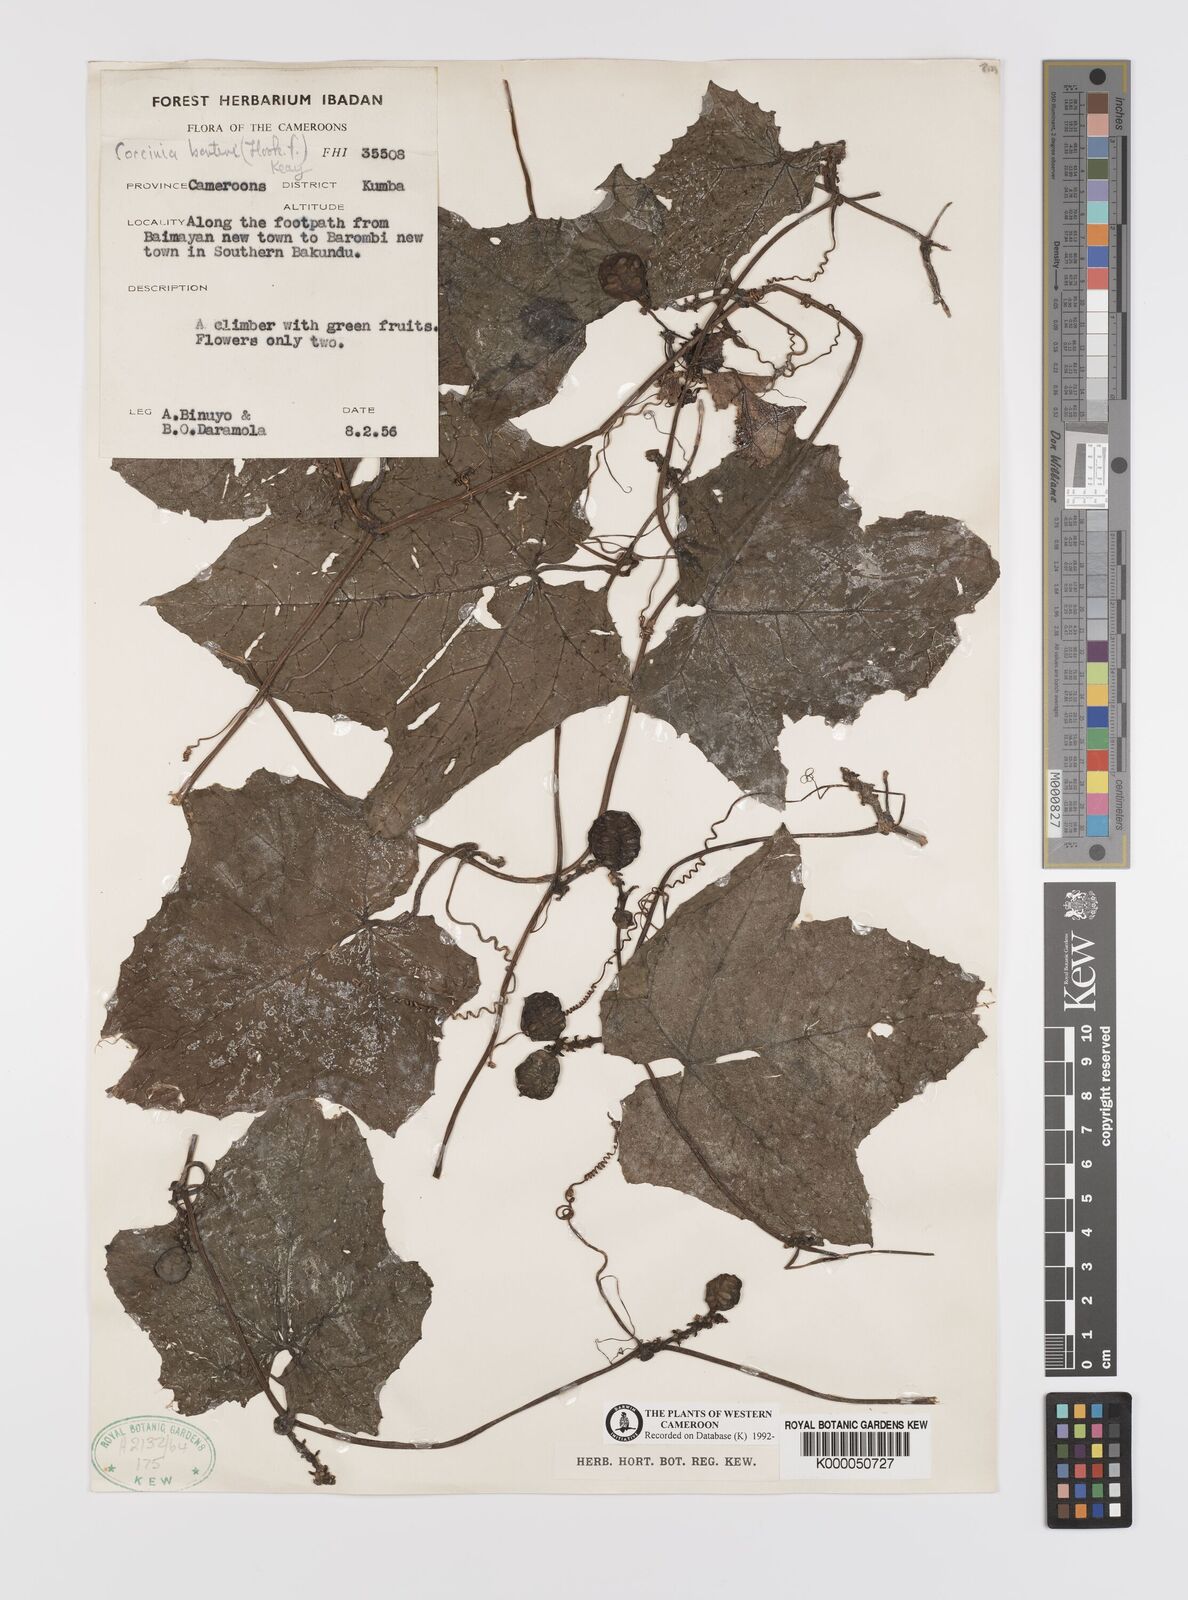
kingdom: Plantae
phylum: Tracheophyta
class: Magnoliopsida
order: Cucurbitales
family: Cucurbitaceae
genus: Coccinia
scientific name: Coccinia barteri
